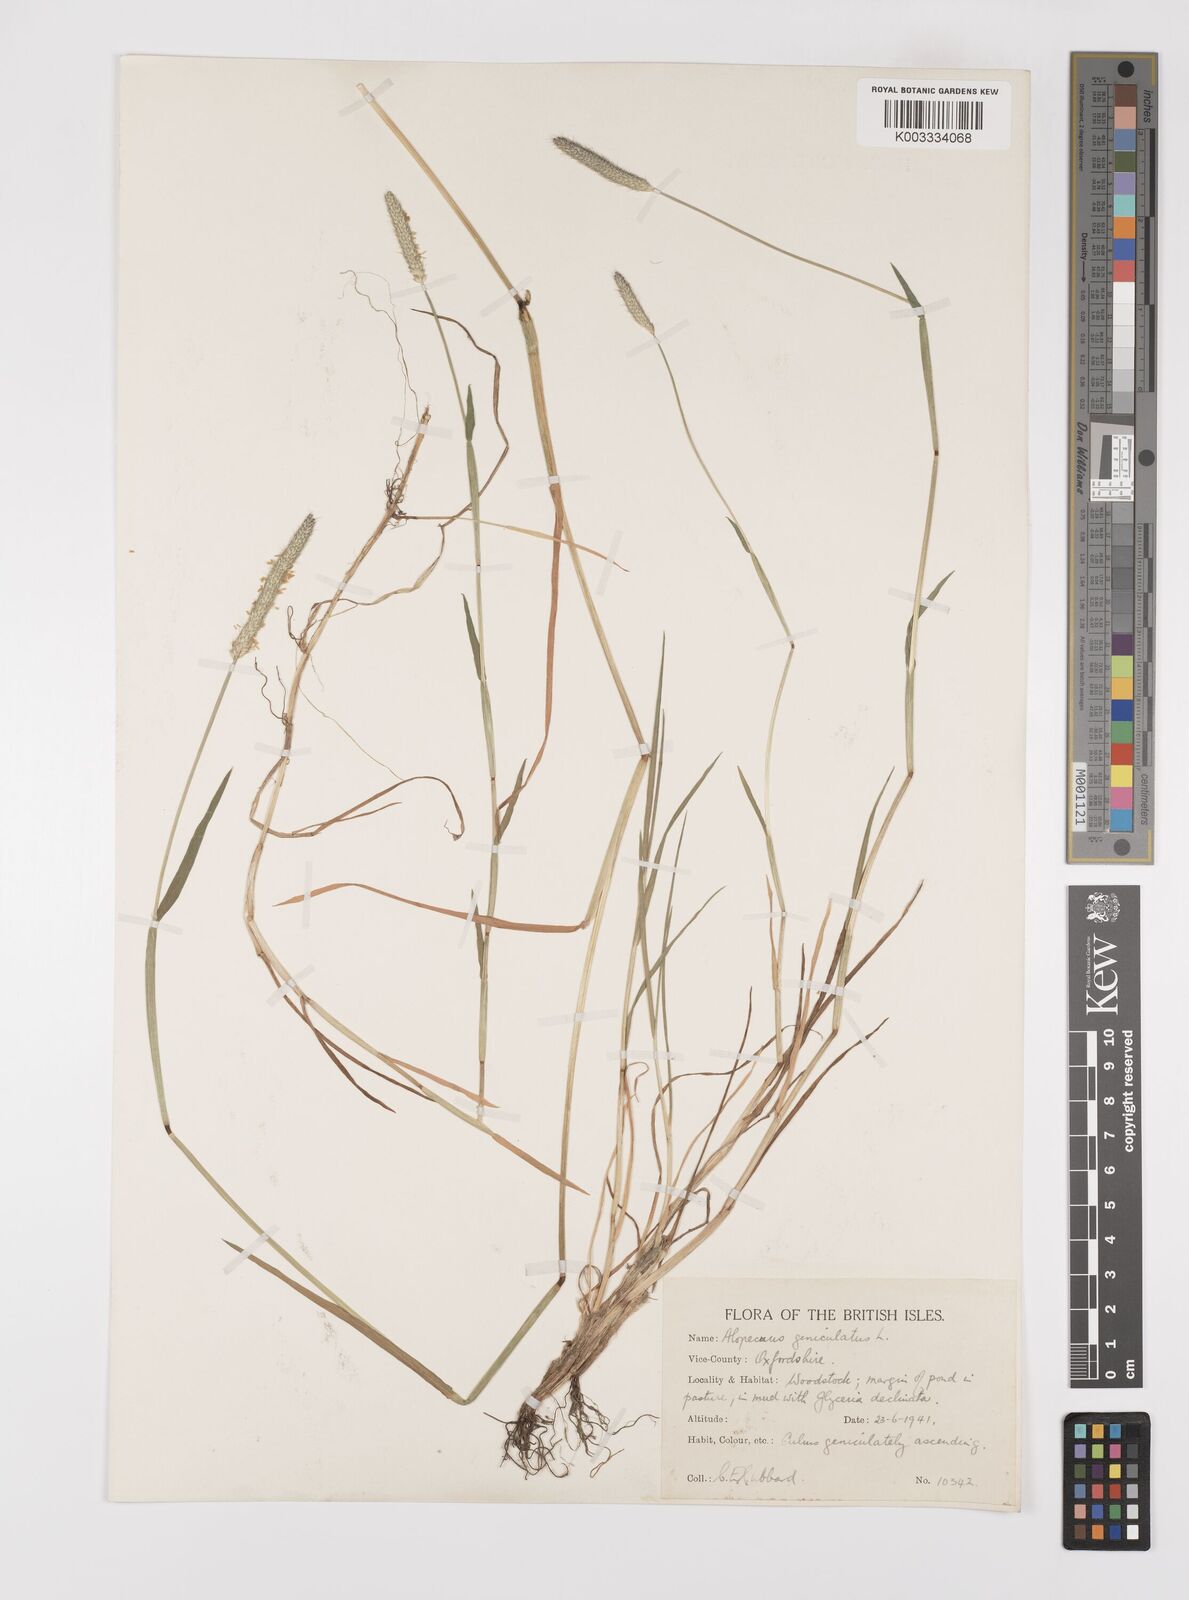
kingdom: Plantae
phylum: Tracheophyta
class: Liliopsida
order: Poales
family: Poaceae
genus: Alopecurus
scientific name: Alopecurus geniculatus
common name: Water foxtail
